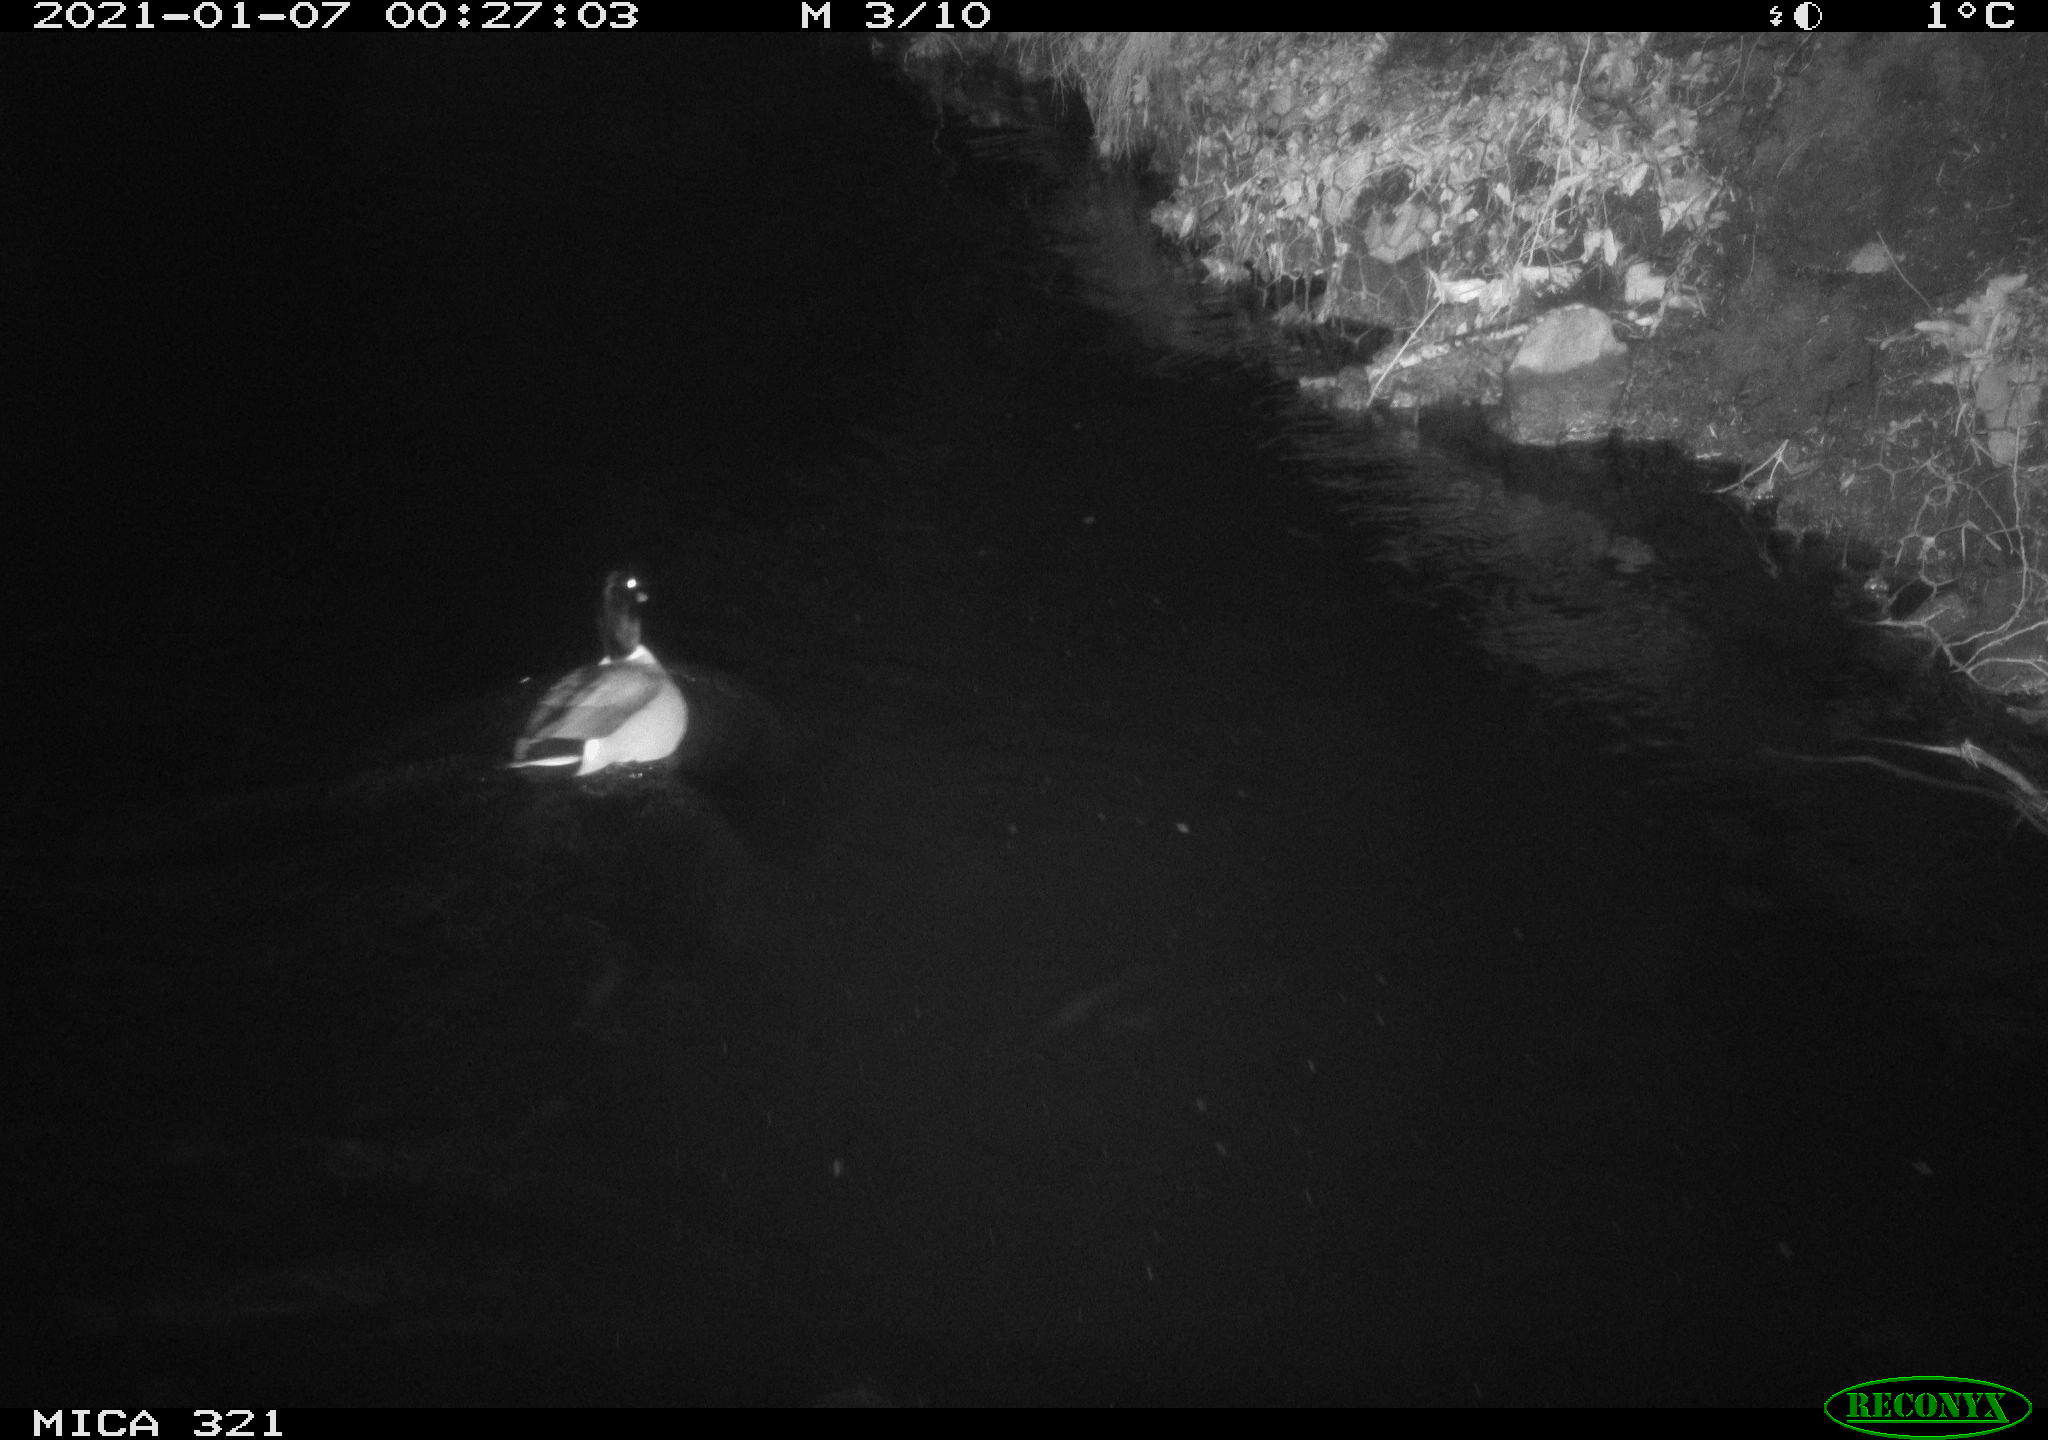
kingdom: Animalia
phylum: Chordata
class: Aves
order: Anseriformes
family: Anatidae
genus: Anas
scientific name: Anas platyrhynchos
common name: Mallard
